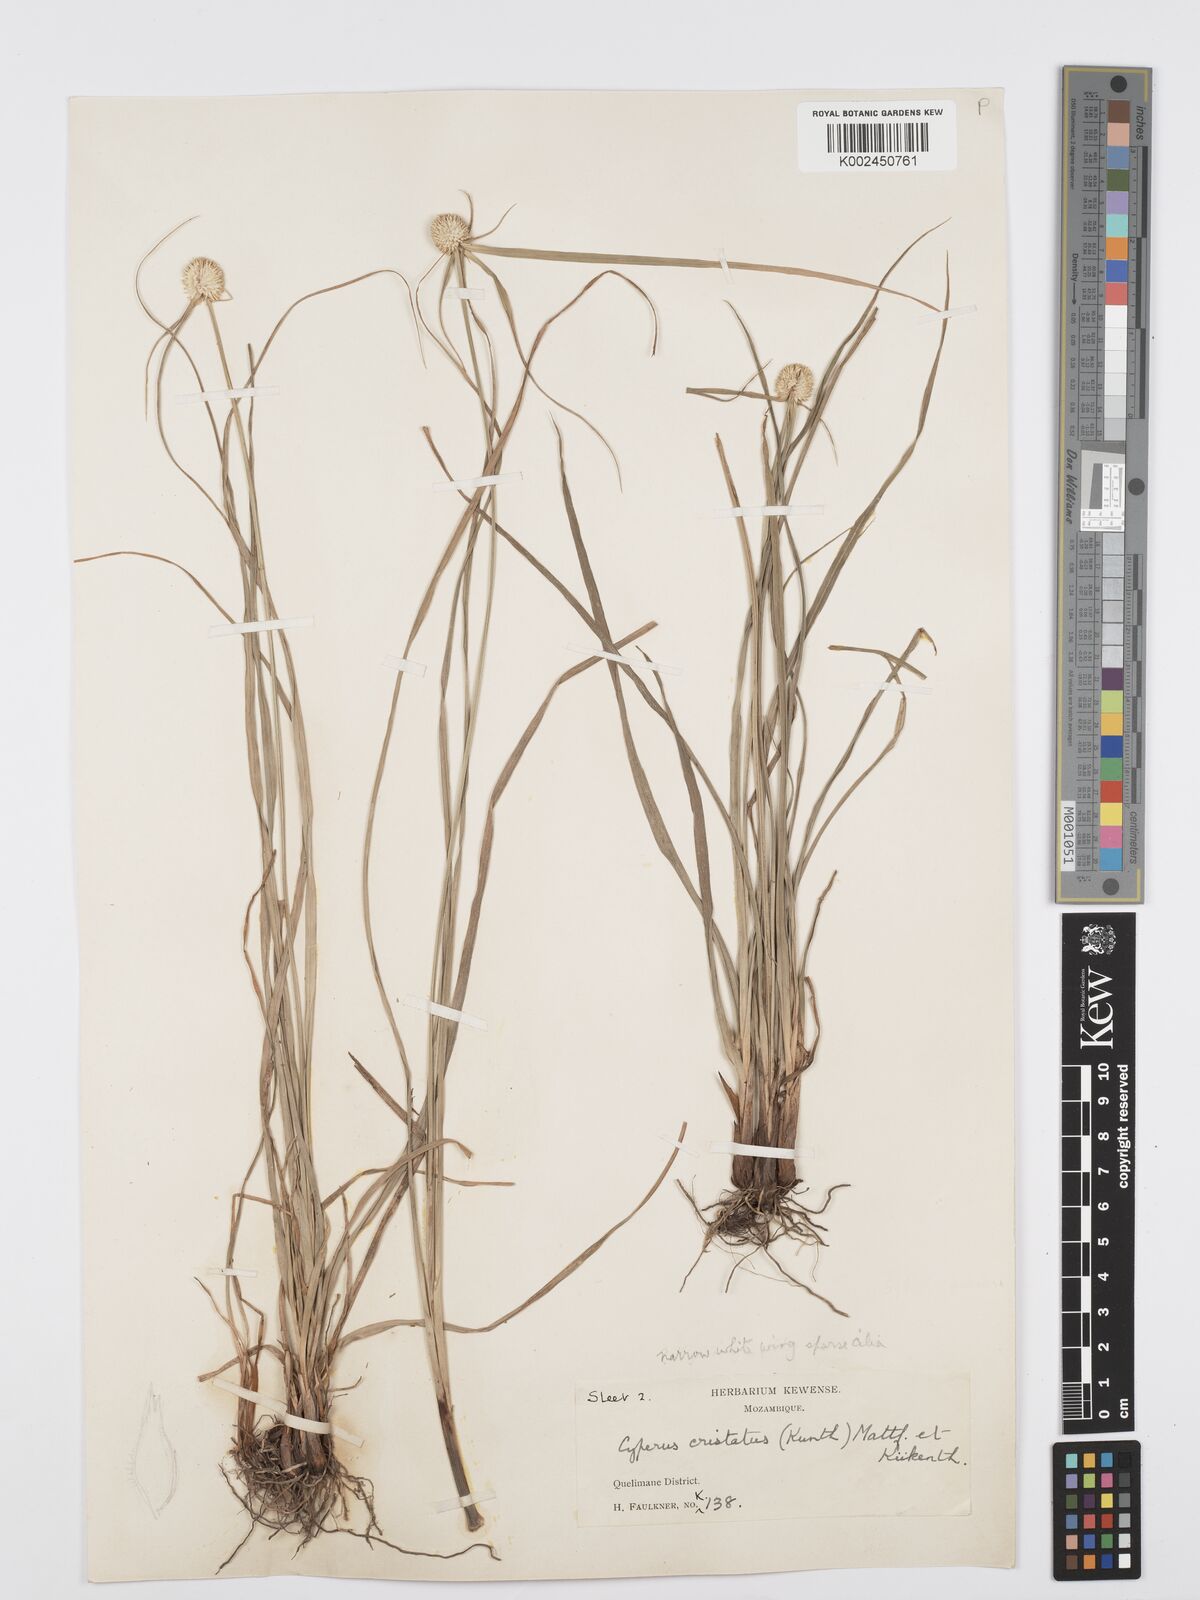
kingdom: Plantae
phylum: Tracheophyta
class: Liliopsida
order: Poales
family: Cyperaceae
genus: Cyperus
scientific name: Cyperus rukwanus
